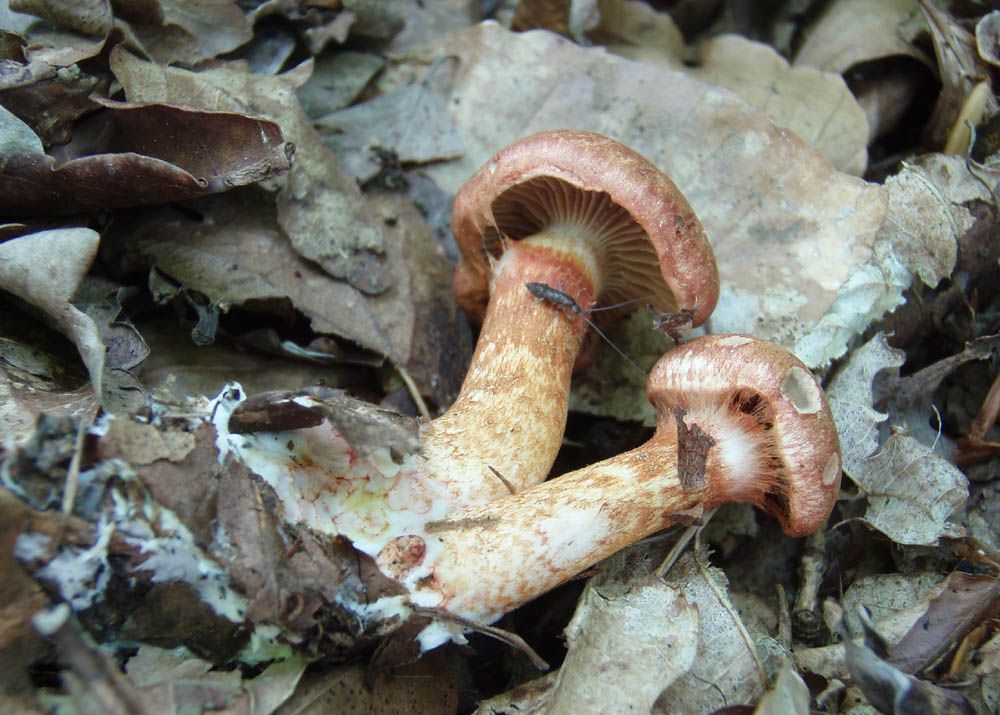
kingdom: Fungi
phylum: Basidiomycota
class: Agaricomycetes
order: Agaricales
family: Cortinariaceae
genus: Cortinarius
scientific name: Cortinarius bolaris
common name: cinnoberskællet slørhat
